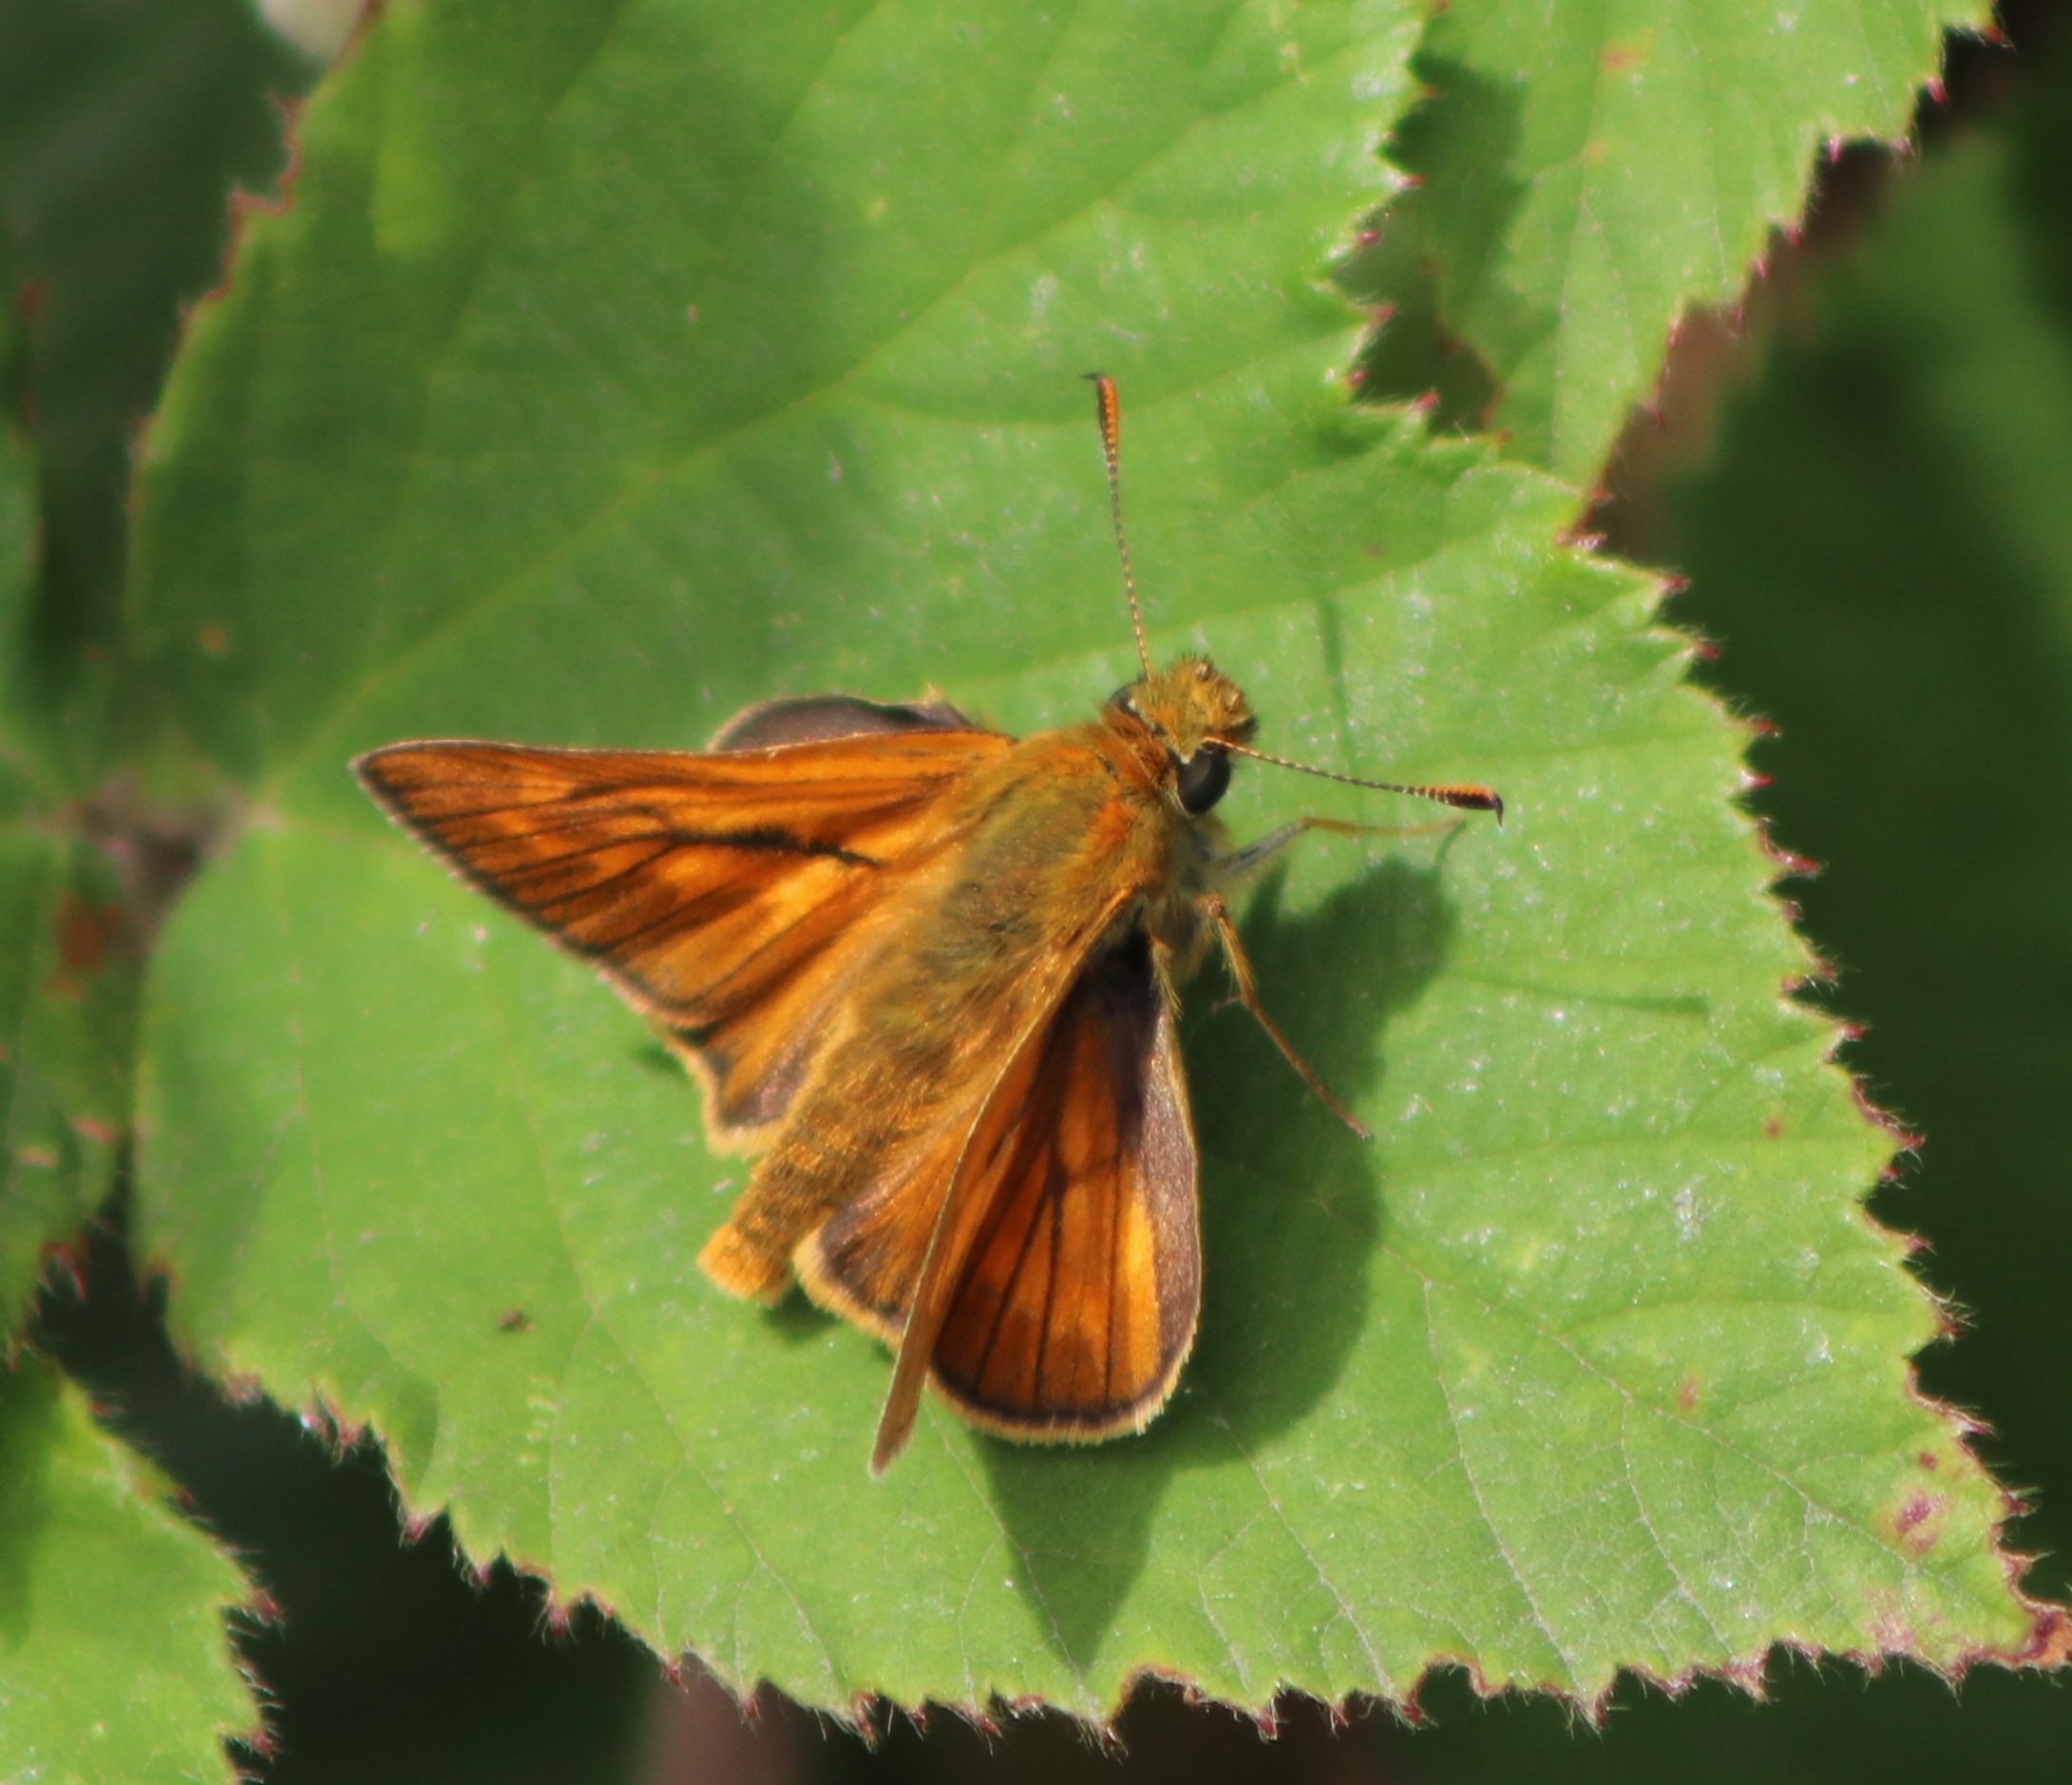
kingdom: Animalia
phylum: Arthropoda
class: Insecta
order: Lepidoptera
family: Hesperiidae
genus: Ochlodes
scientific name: Ochlodes venata
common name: Stor bredpande
